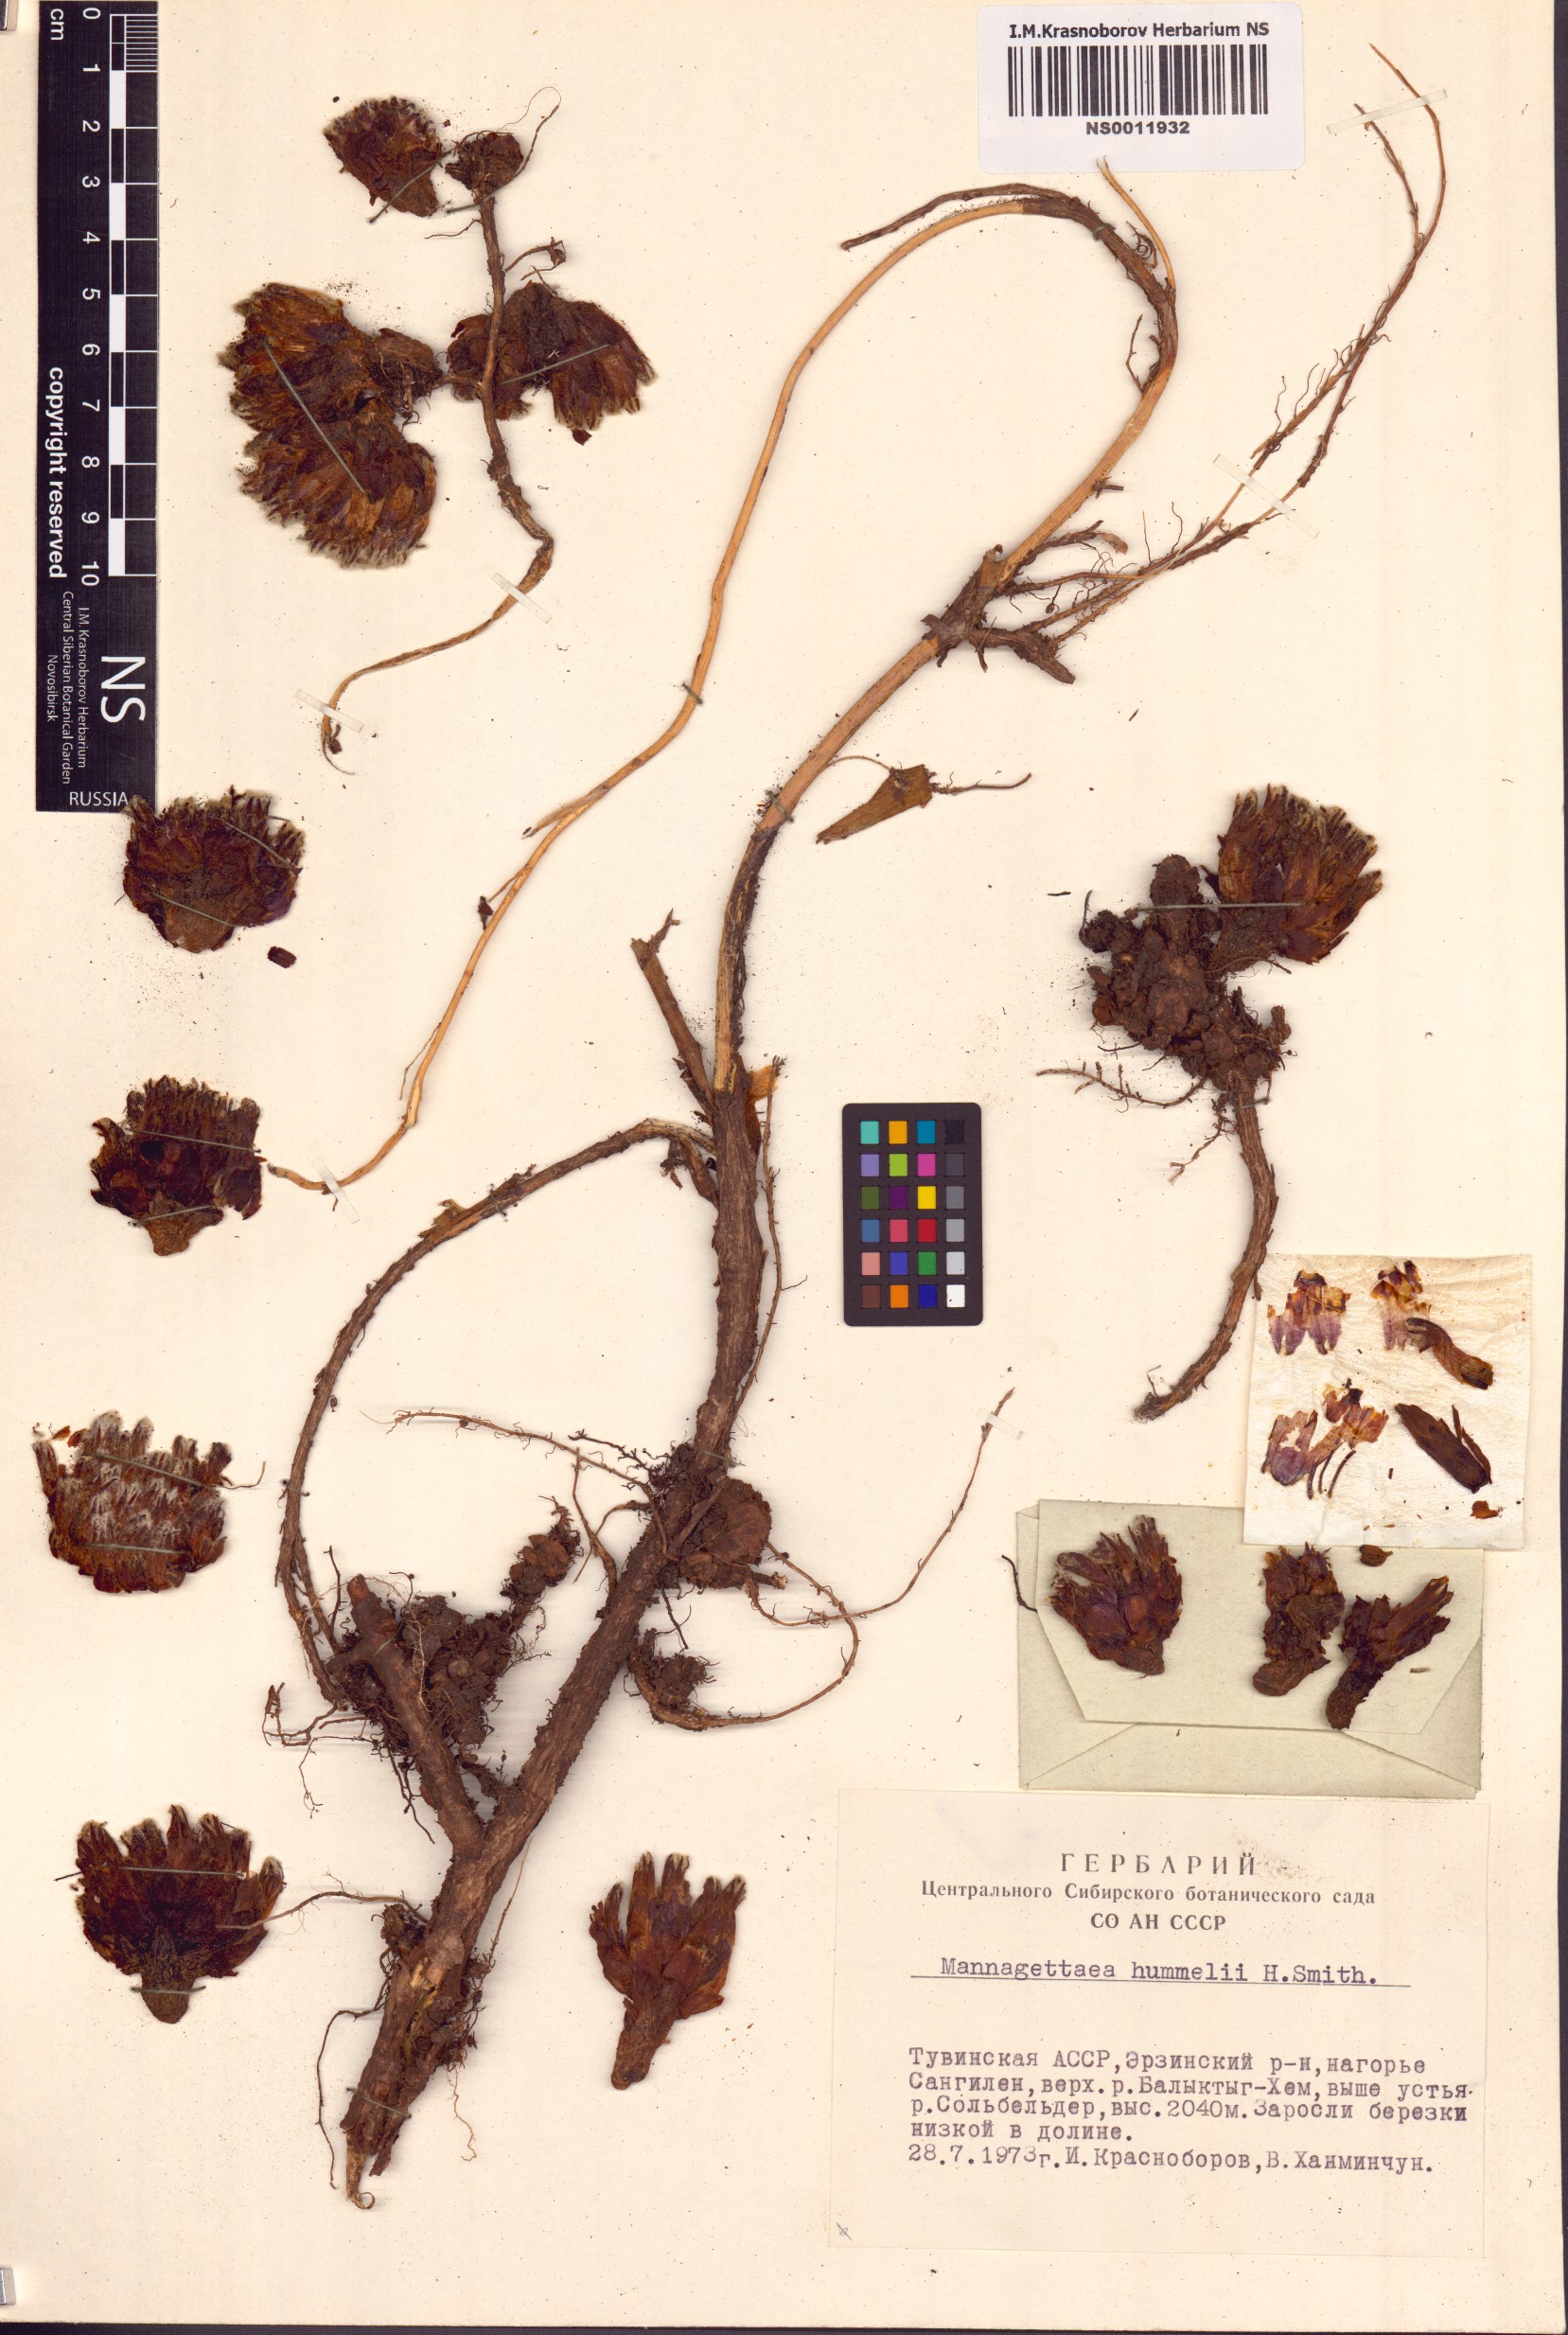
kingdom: Plantae
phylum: Tracheophyta
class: Magnoliopsida
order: Lamiales
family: Orobanchaceae
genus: Mannagettaea
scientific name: Mannagettaea hummelii
